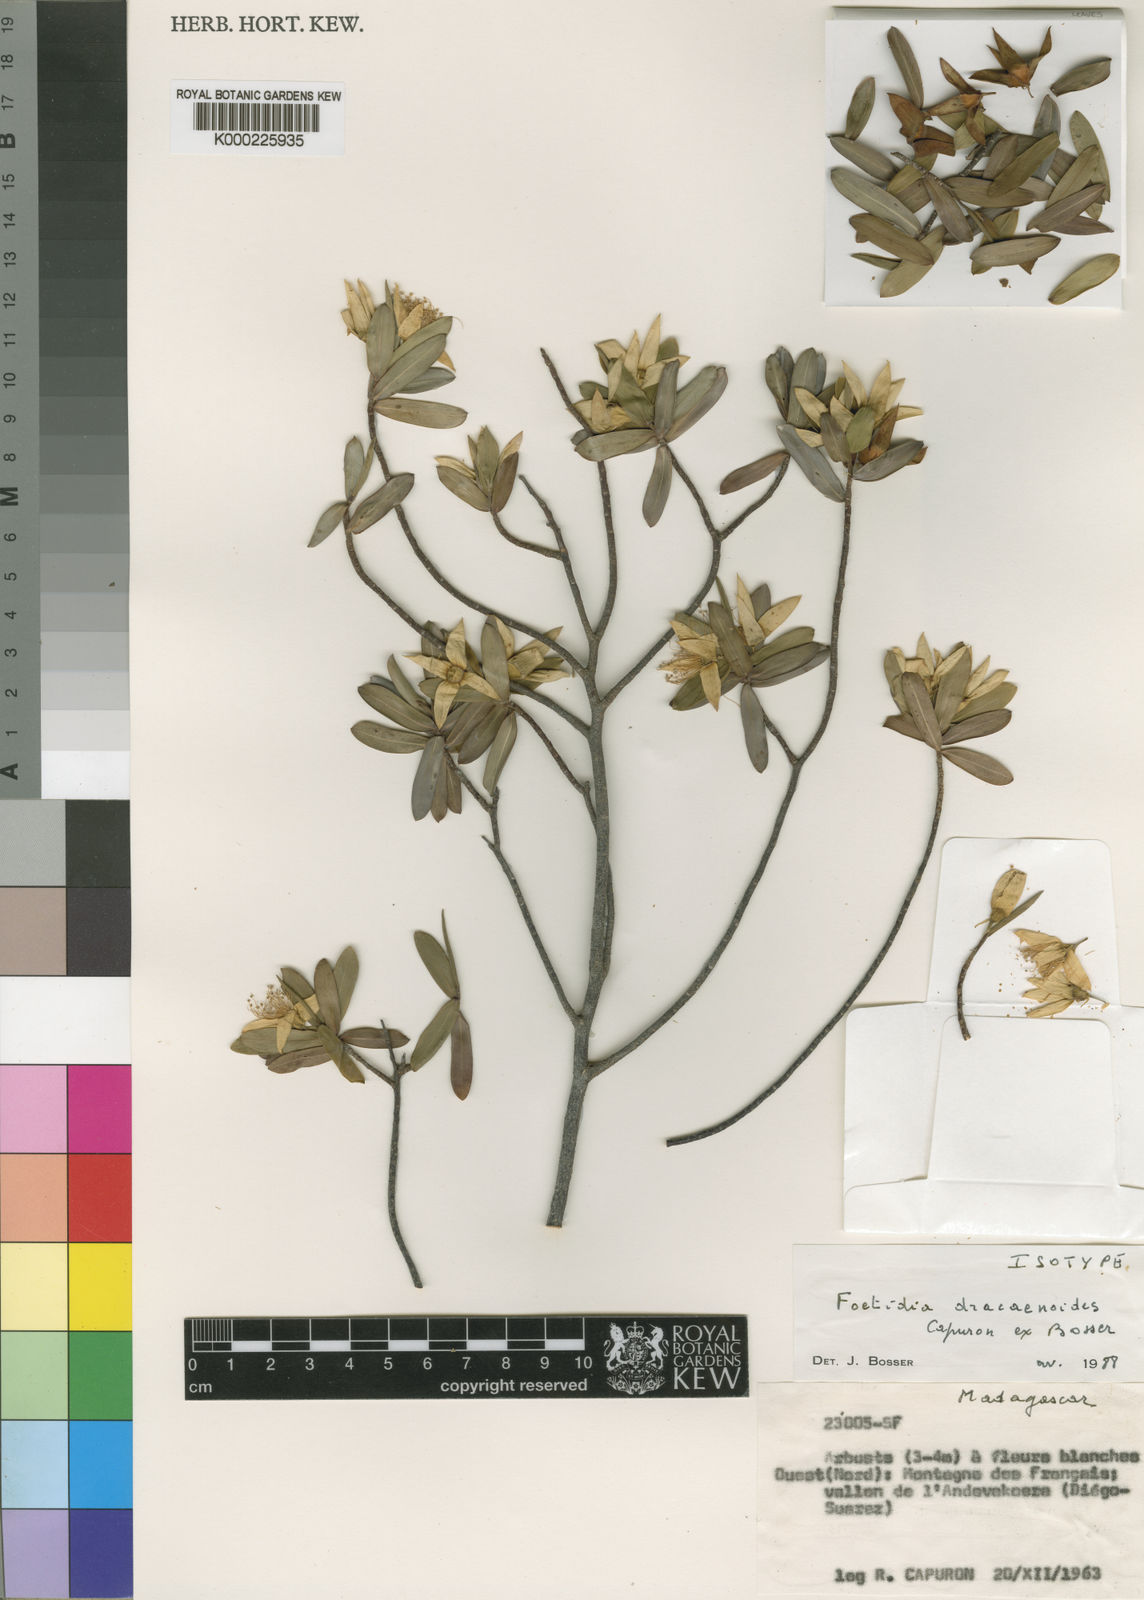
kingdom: Plantae
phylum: Tracheophyta
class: Magnoliopsida
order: Ericales
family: Lecythidaceae
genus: Foetidia
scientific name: Foetidia dracaenoides
